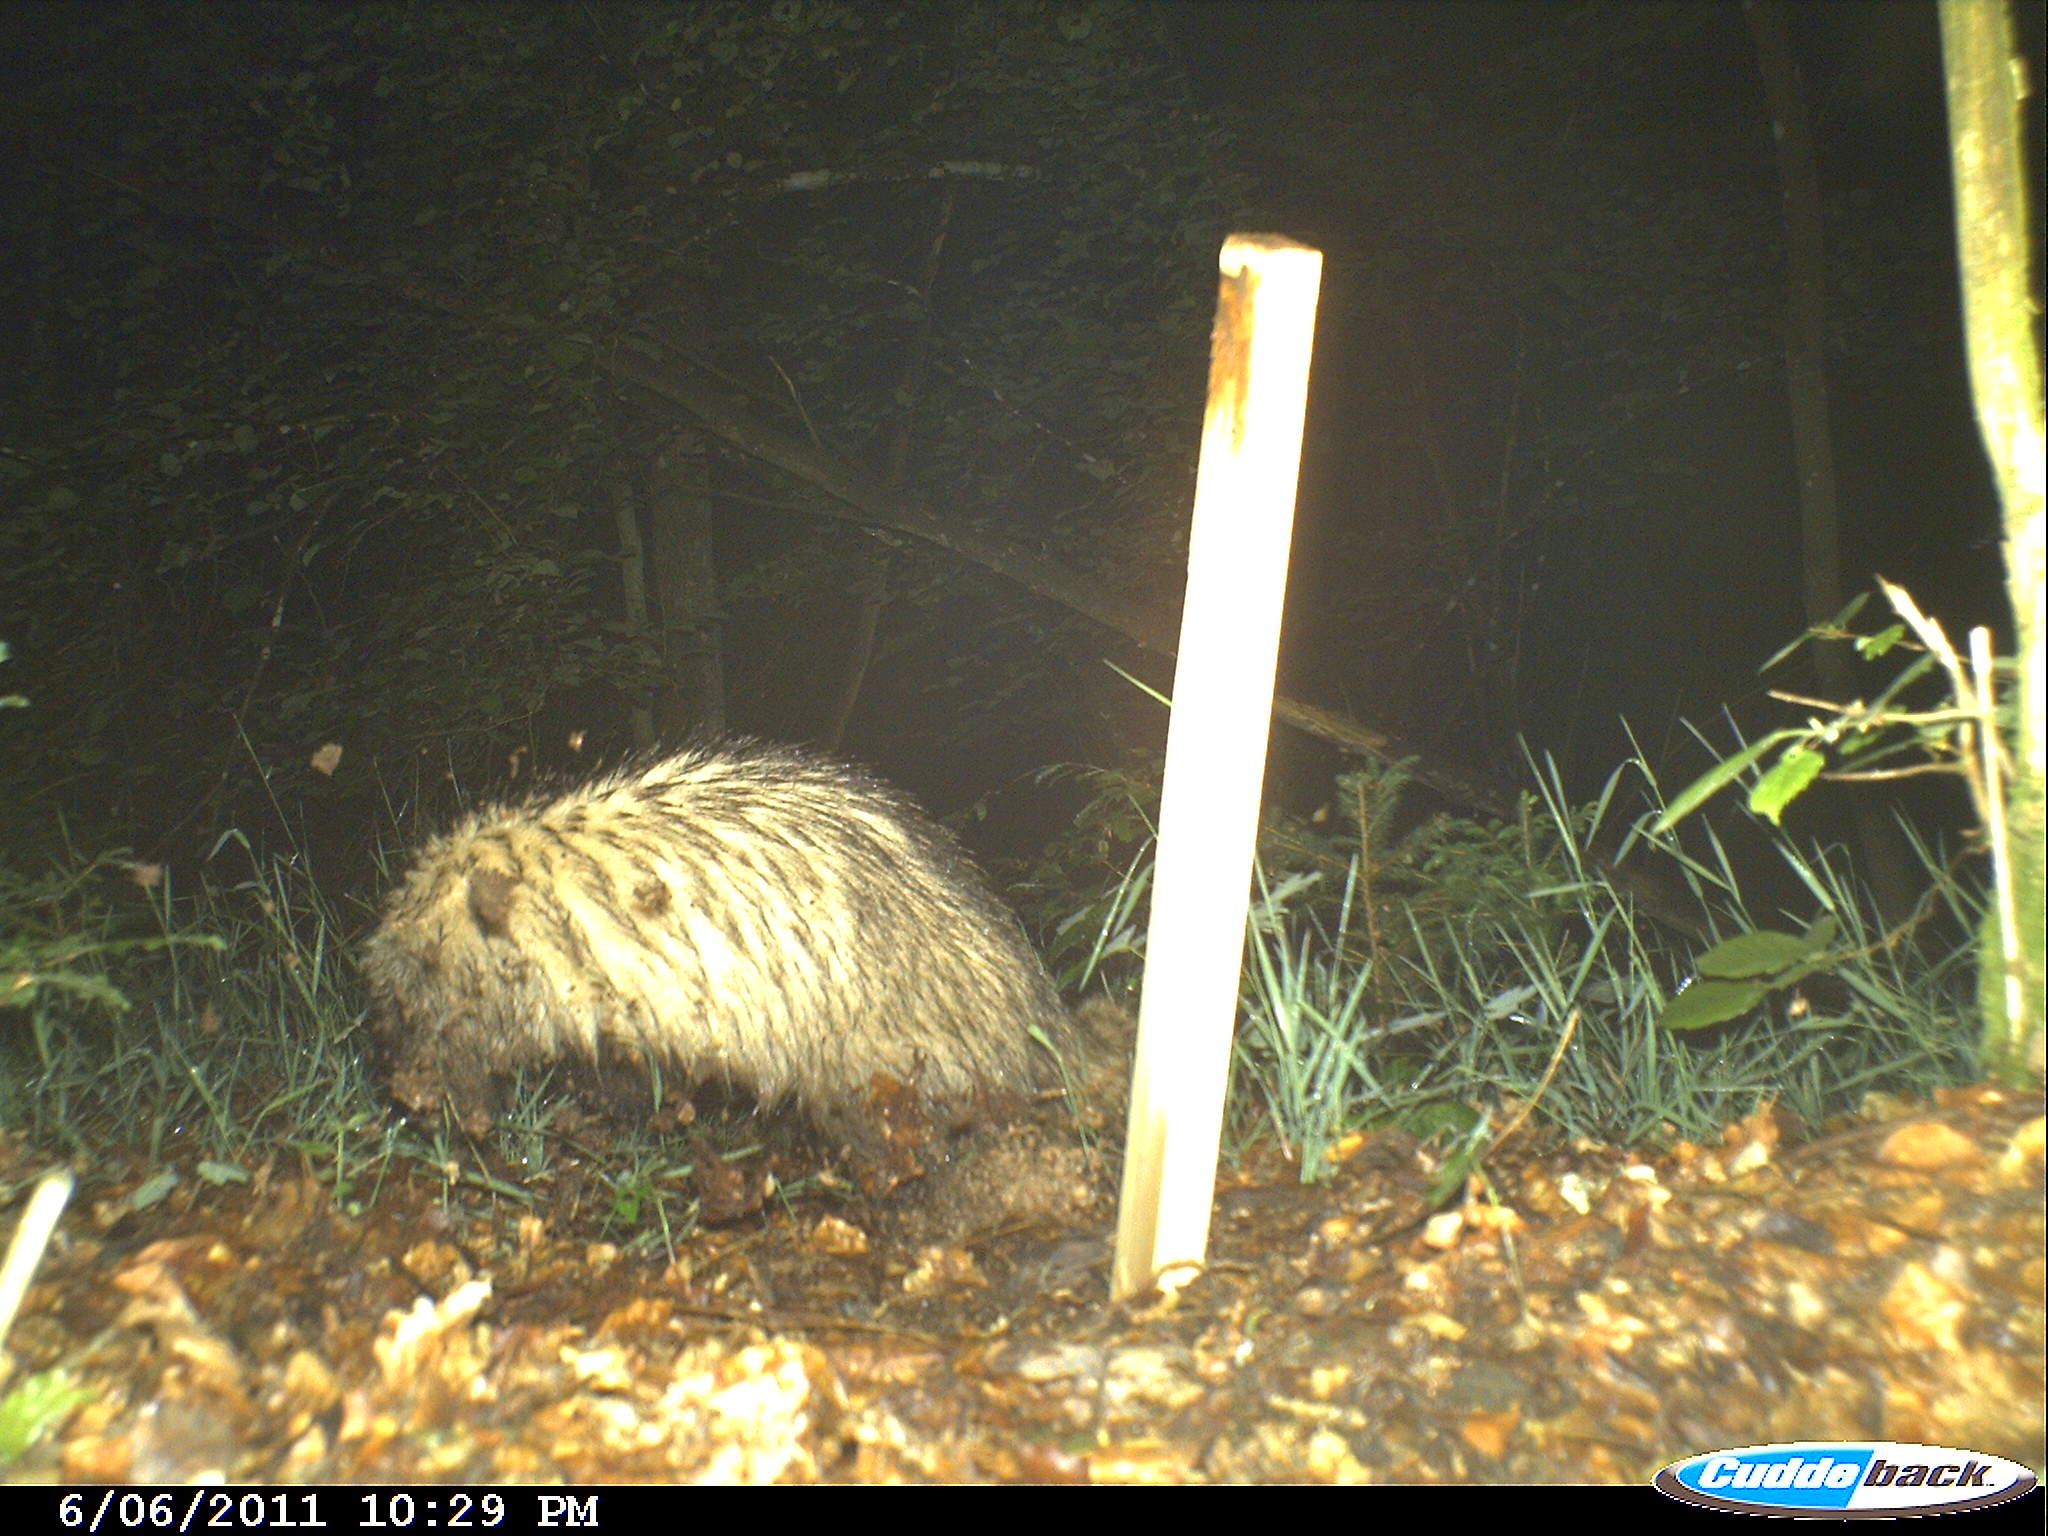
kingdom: Animalia
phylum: Chordata
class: Mammalia
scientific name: Mammalia
